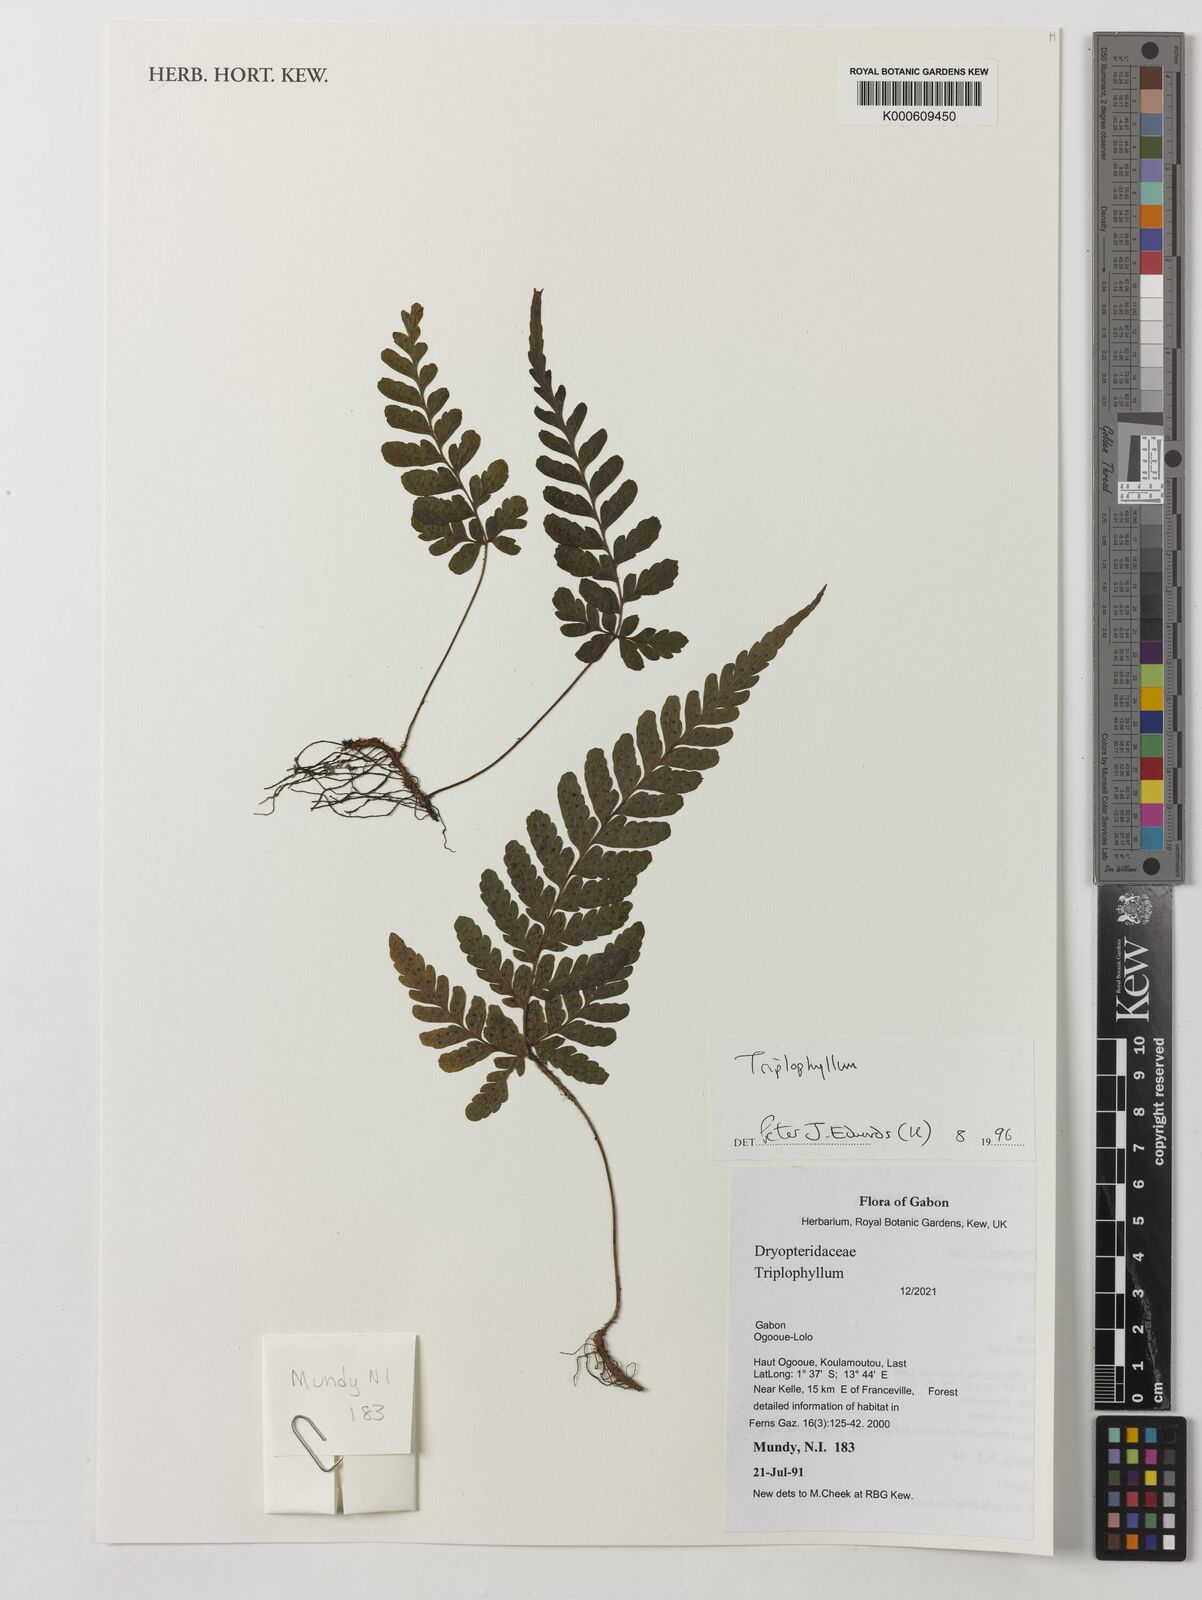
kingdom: Plantae
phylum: Tracheophyta
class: Polypodiopsida
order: Polypodiales
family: Tectariaceae
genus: Triplophyllum
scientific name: Triplophyllum
